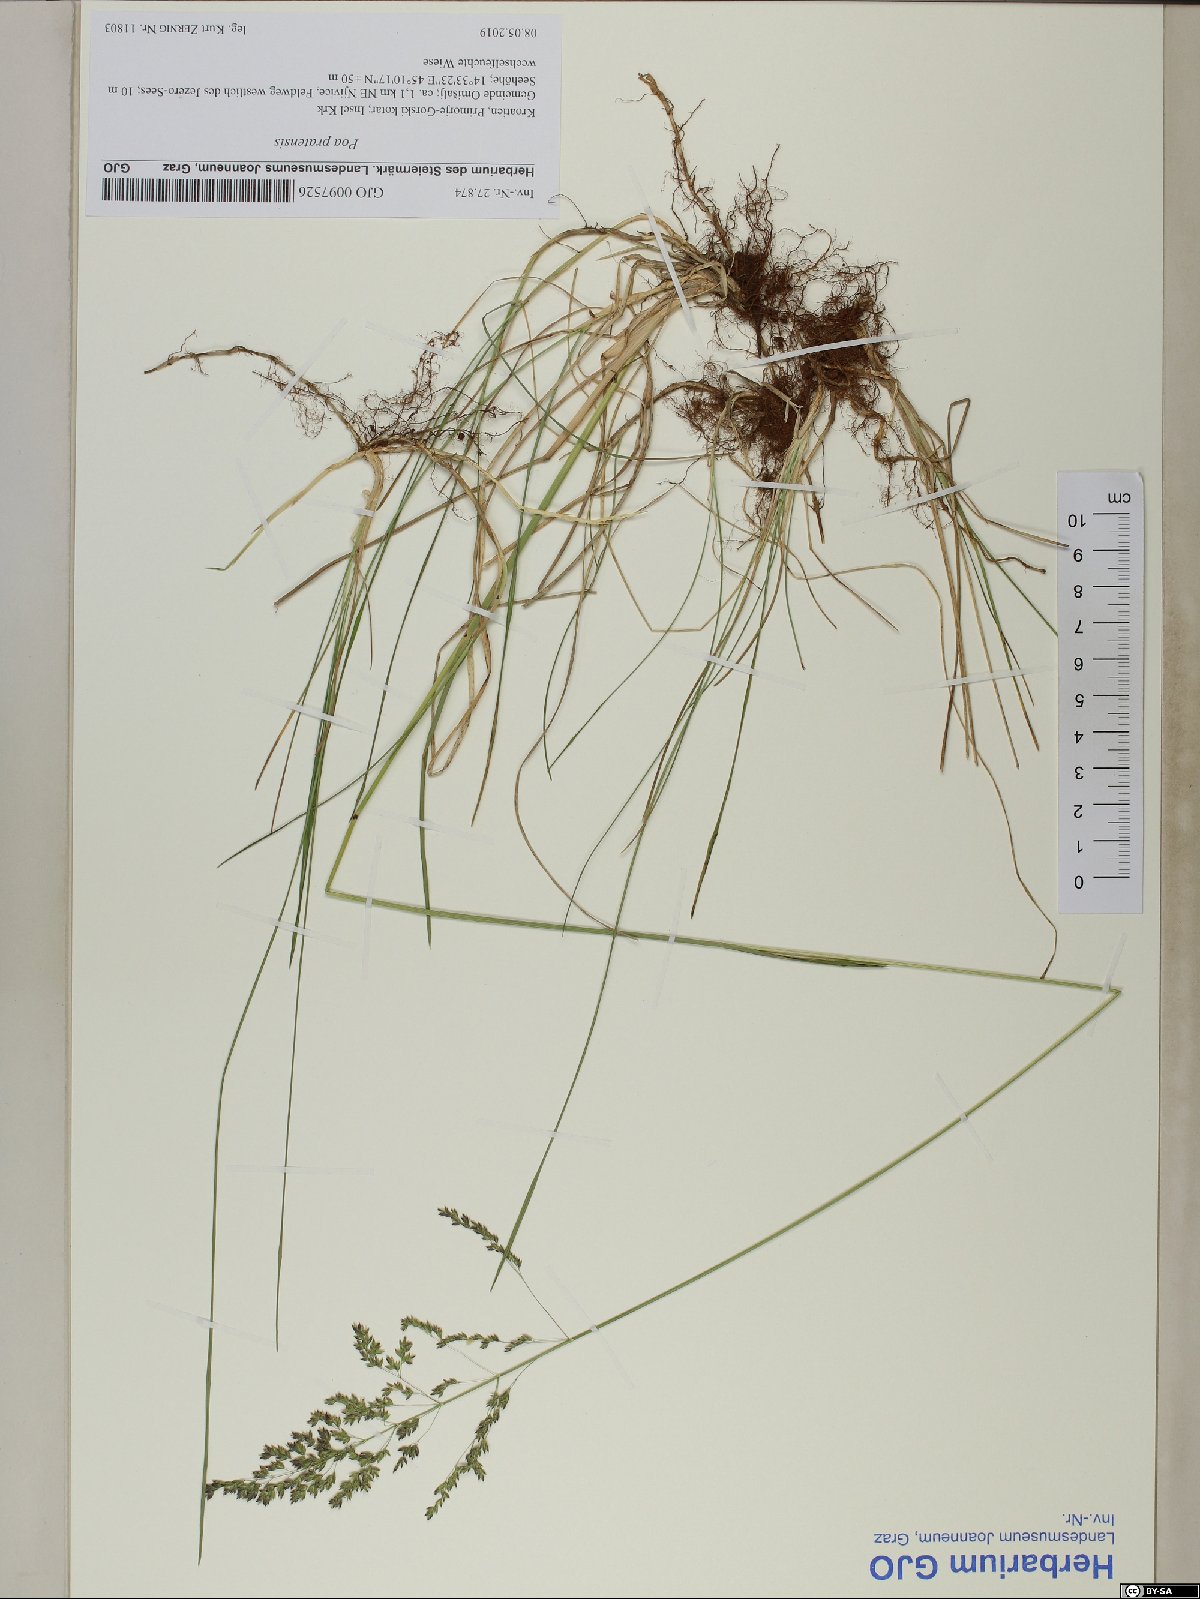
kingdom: Plantae
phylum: Tracheophyta
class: Liliopsida
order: Poales
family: Poaceae
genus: Poa
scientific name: Poa pratensis
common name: Kentucky bluegrass
